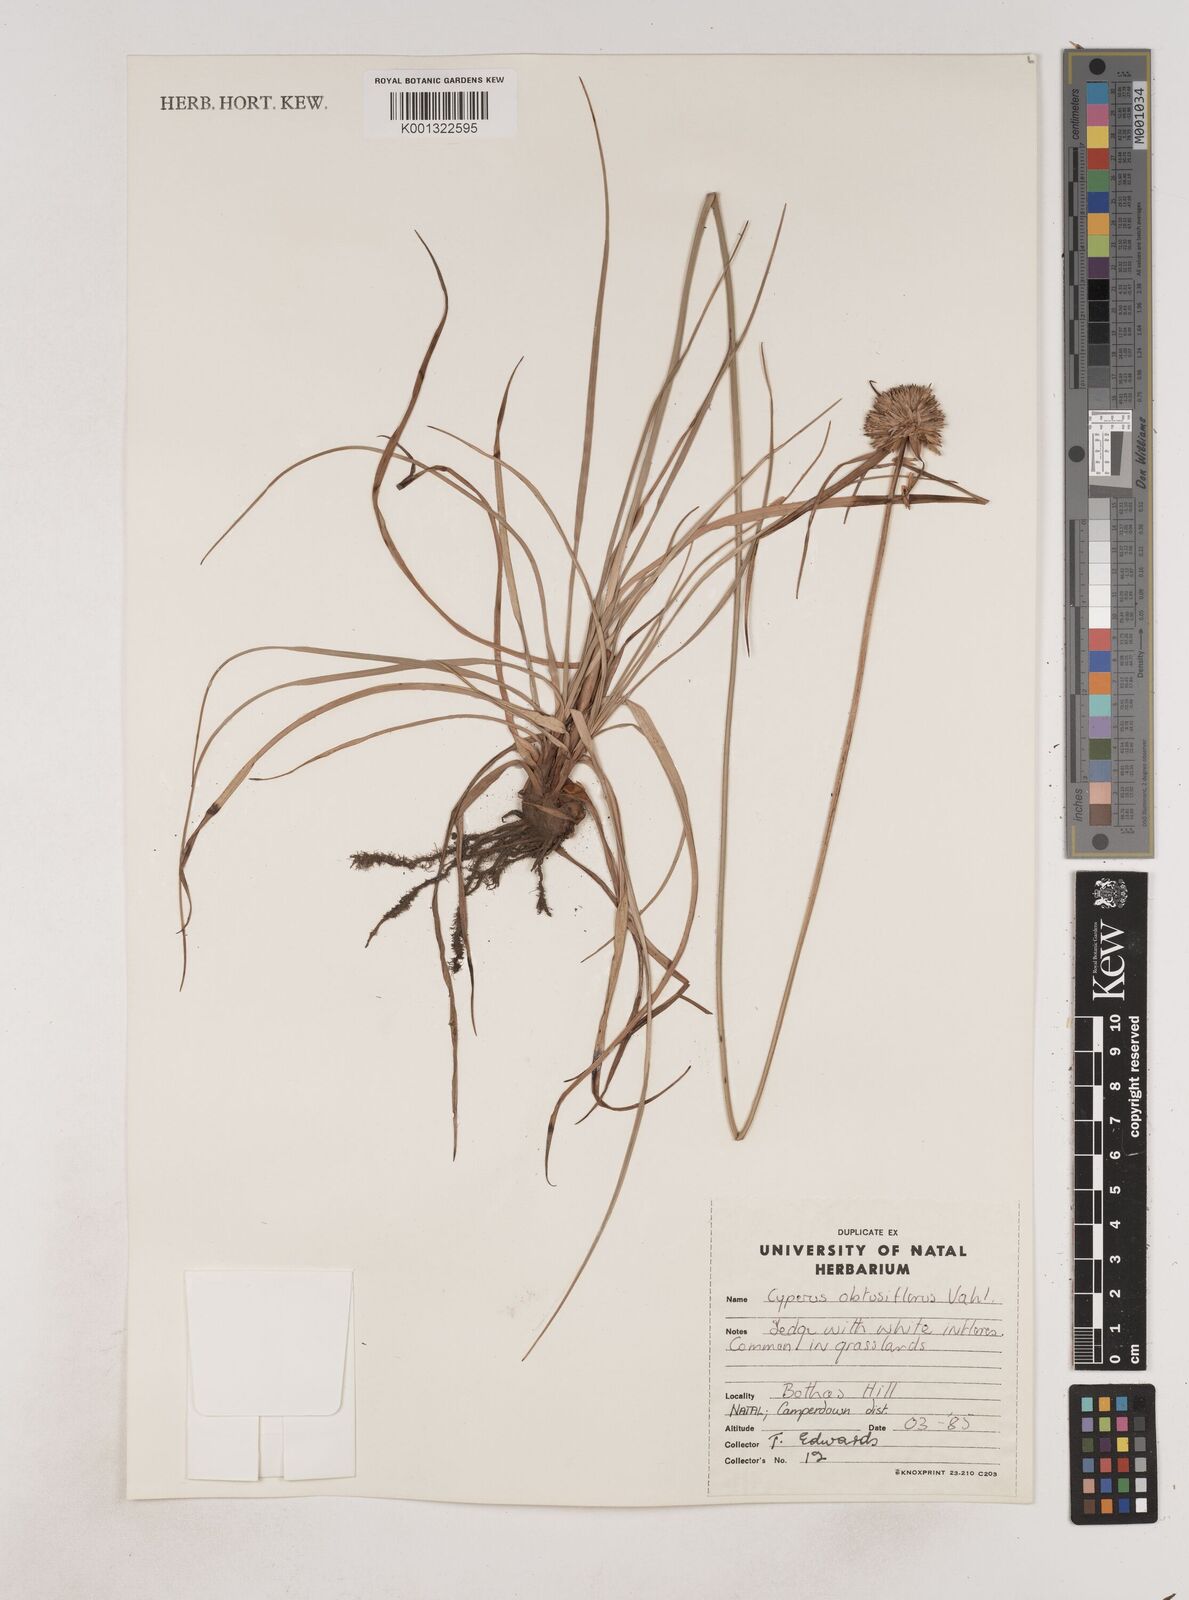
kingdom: Plantae
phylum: Tracheophyta
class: Liliopsida
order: Poales
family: Cyperaceae
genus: Cyperus
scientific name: Cyperus niveus
